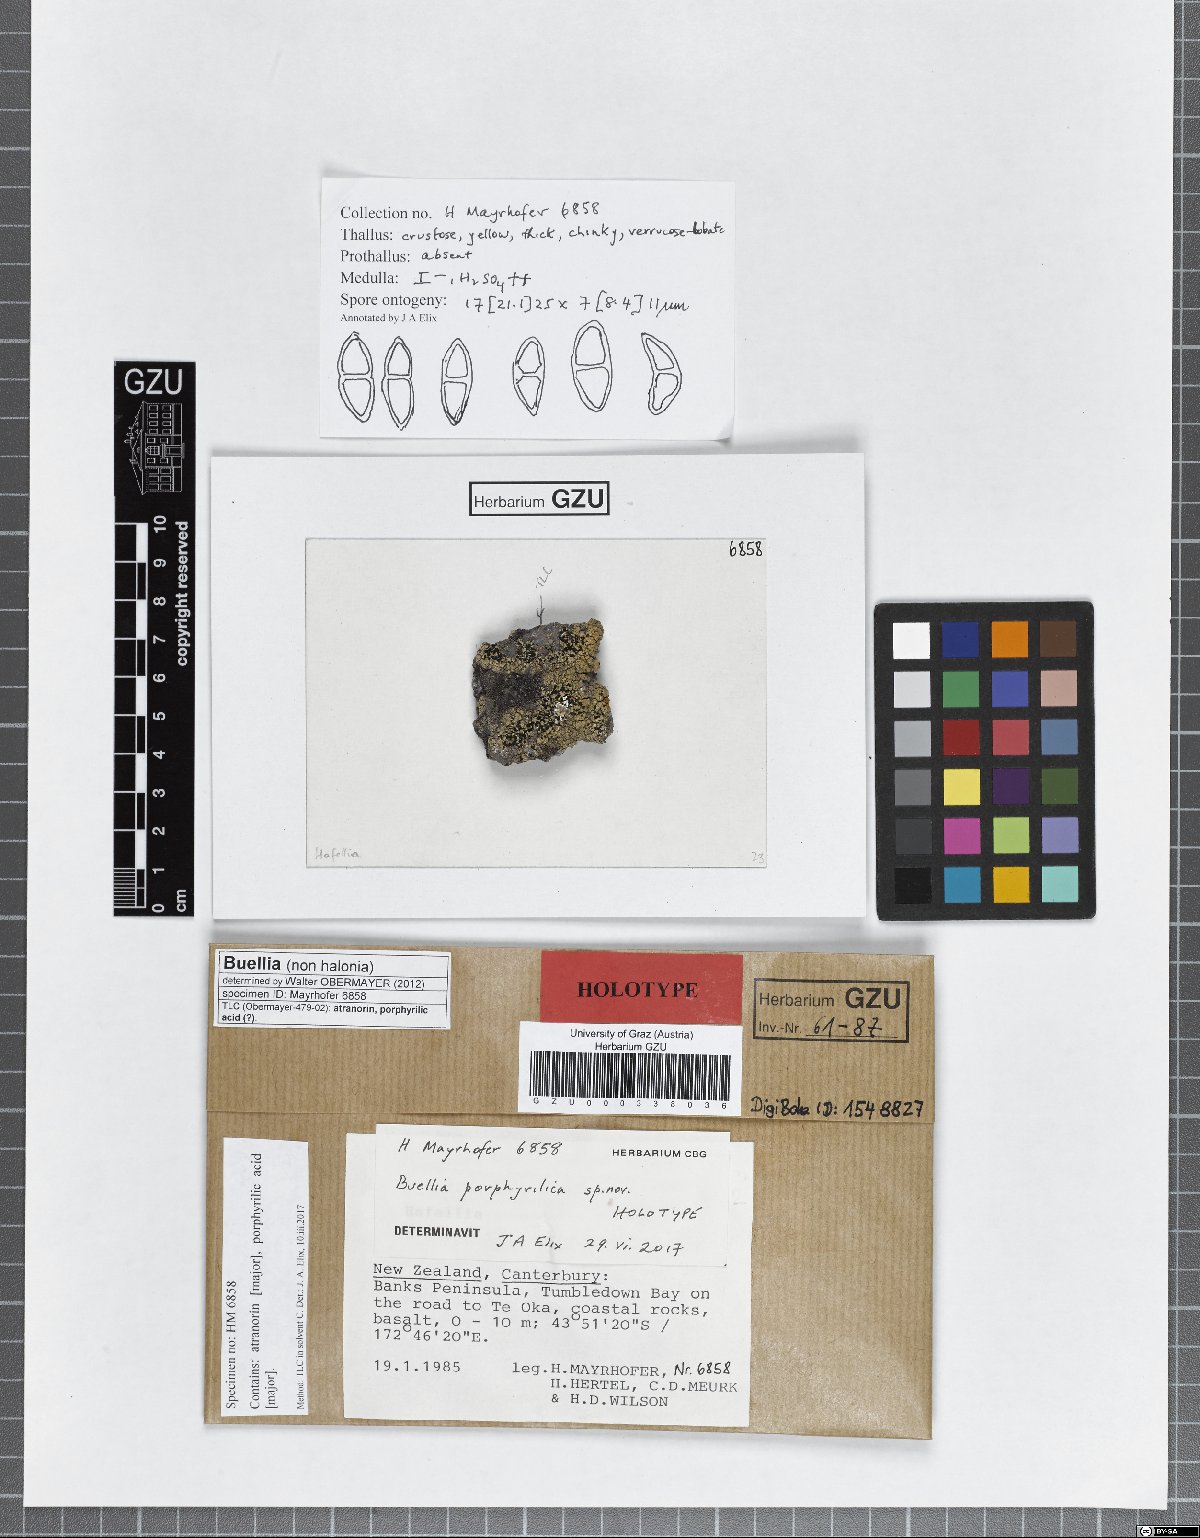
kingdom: Fungi
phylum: Ascomycota
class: Lecanoromycetes
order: Caliciales
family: Caliciaceae
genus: Buellia
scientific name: Buellia porphyrilica
